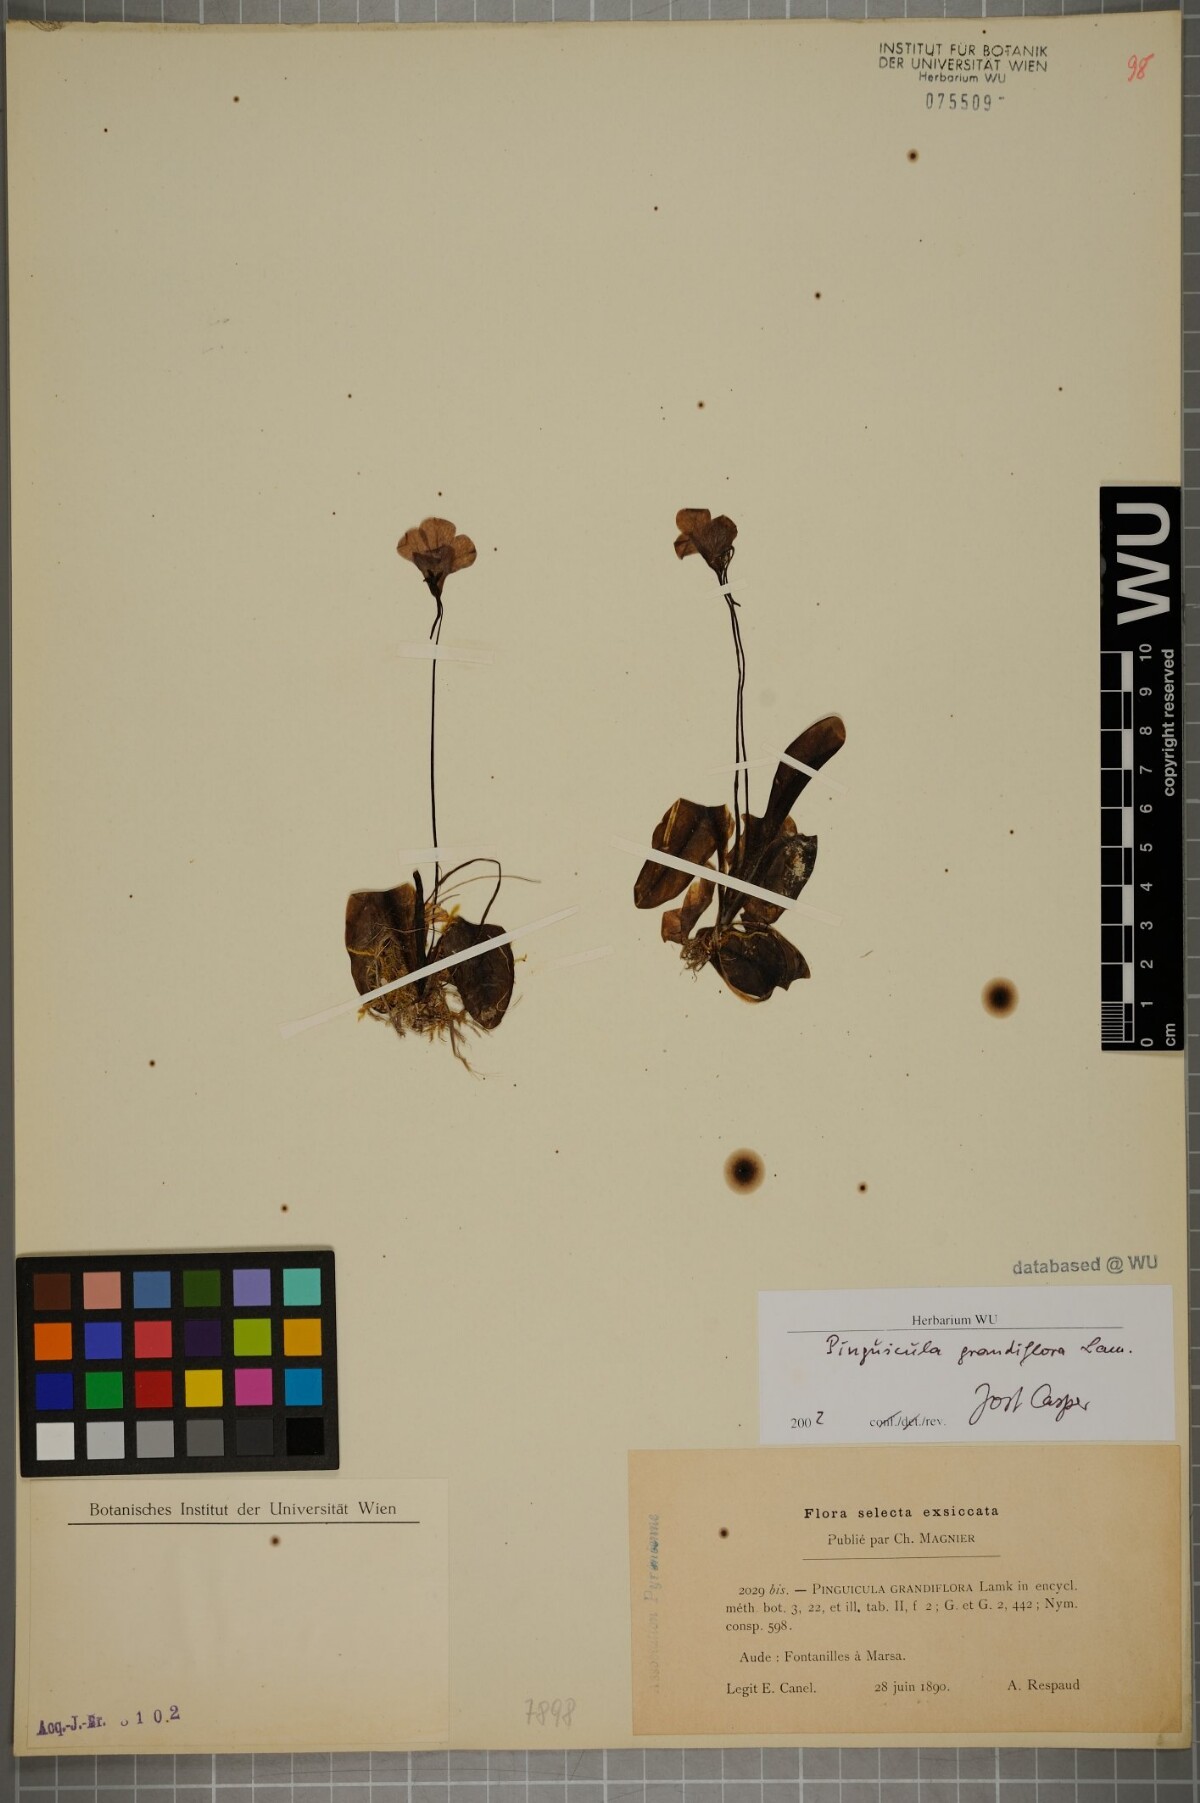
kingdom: Plantae
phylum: Tracheophyta
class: Magnoliopsida
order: Lamiales
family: Lentibulariaceae
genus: Pinguicula
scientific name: Pinguicula grandiflora
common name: Large-flowered butterwort
